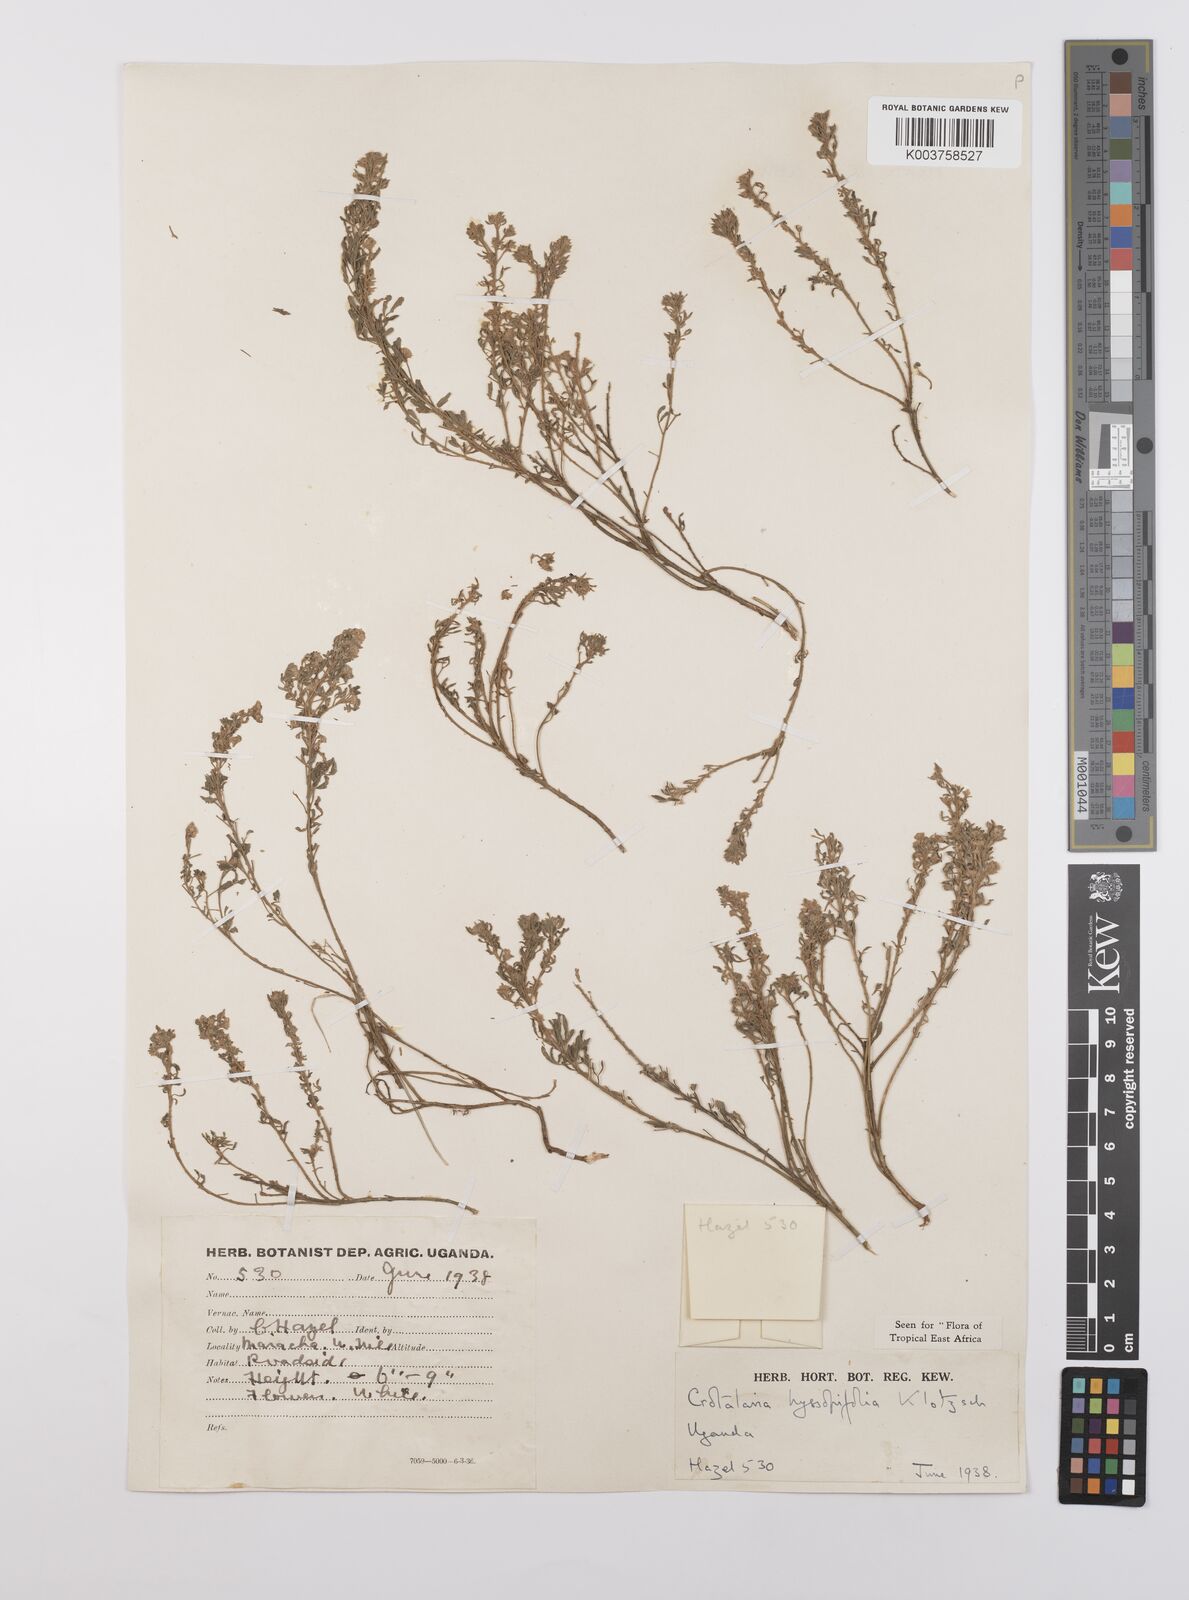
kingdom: Plantae
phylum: Tracheophyta
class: Magnoliopsida
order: Fabales
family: Fabaceae
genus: Crotalaria
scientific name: Crotalaria hyssopifolia
